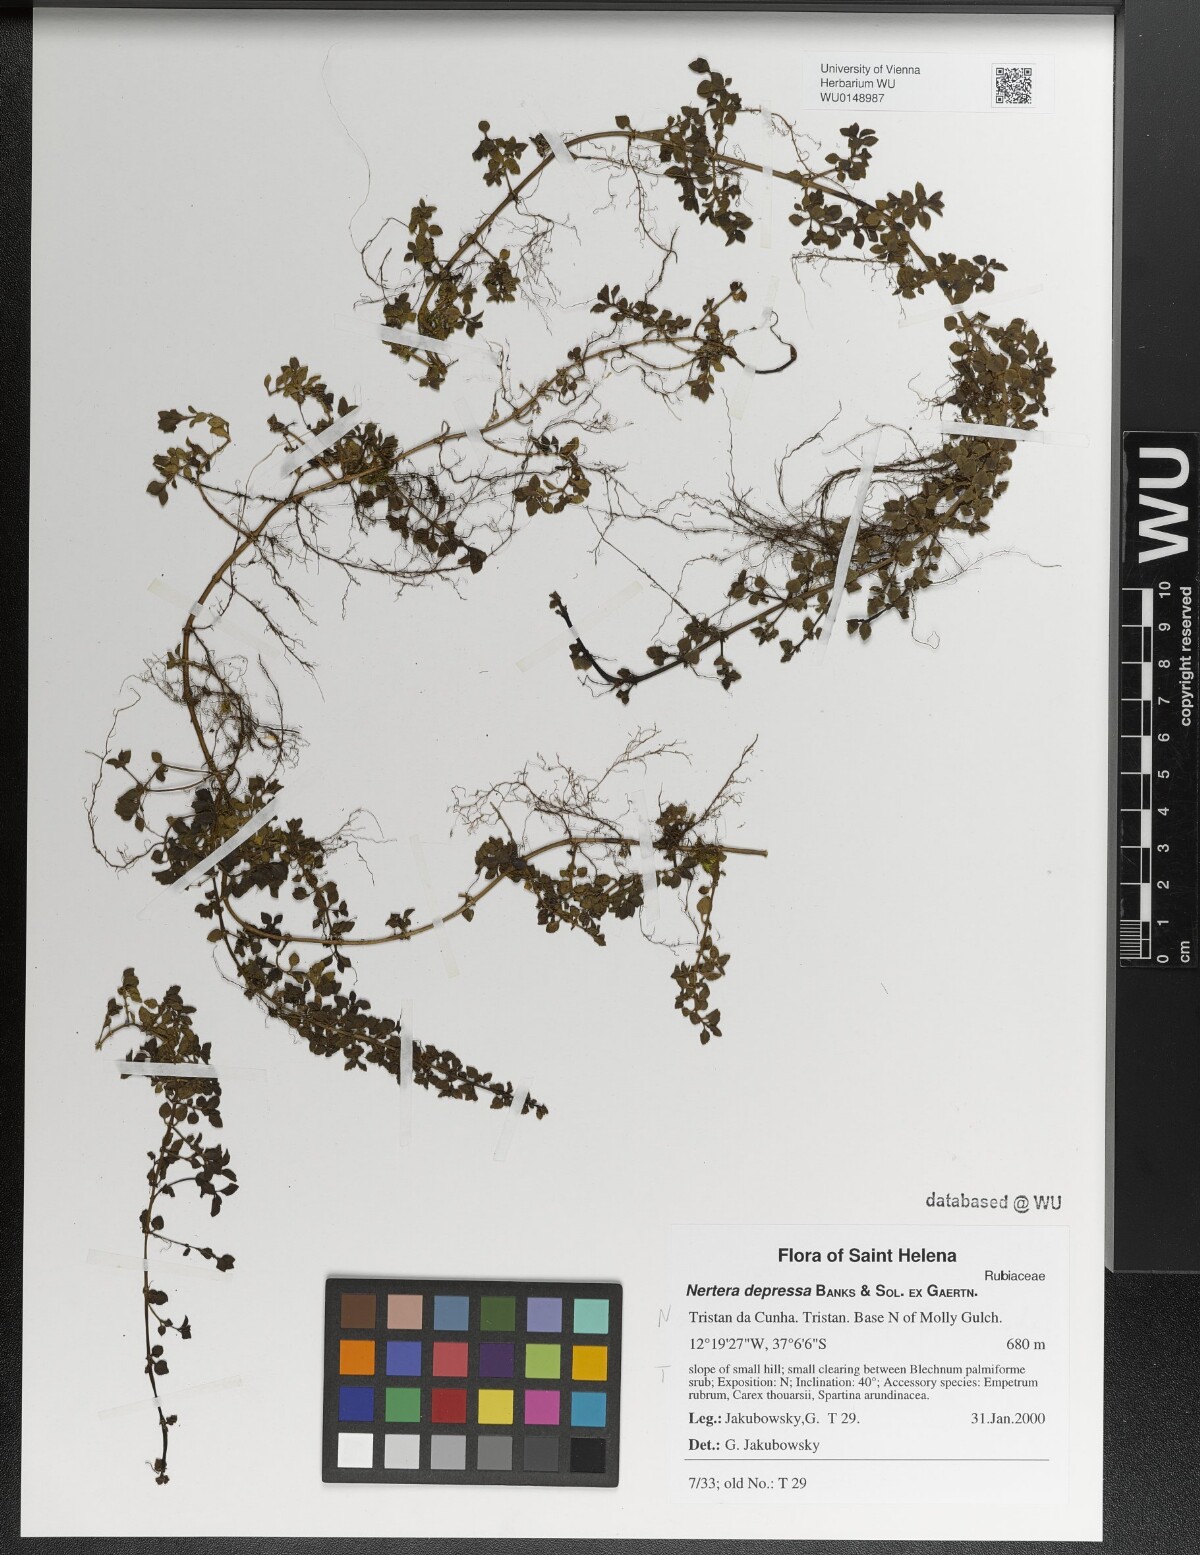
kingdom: Plantae
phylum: Tracheophyta
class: Magnoliopsida
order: Gentianales
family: Rubiaceae
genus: Nertera
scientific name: Nertera granadensis
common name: Beadplant
